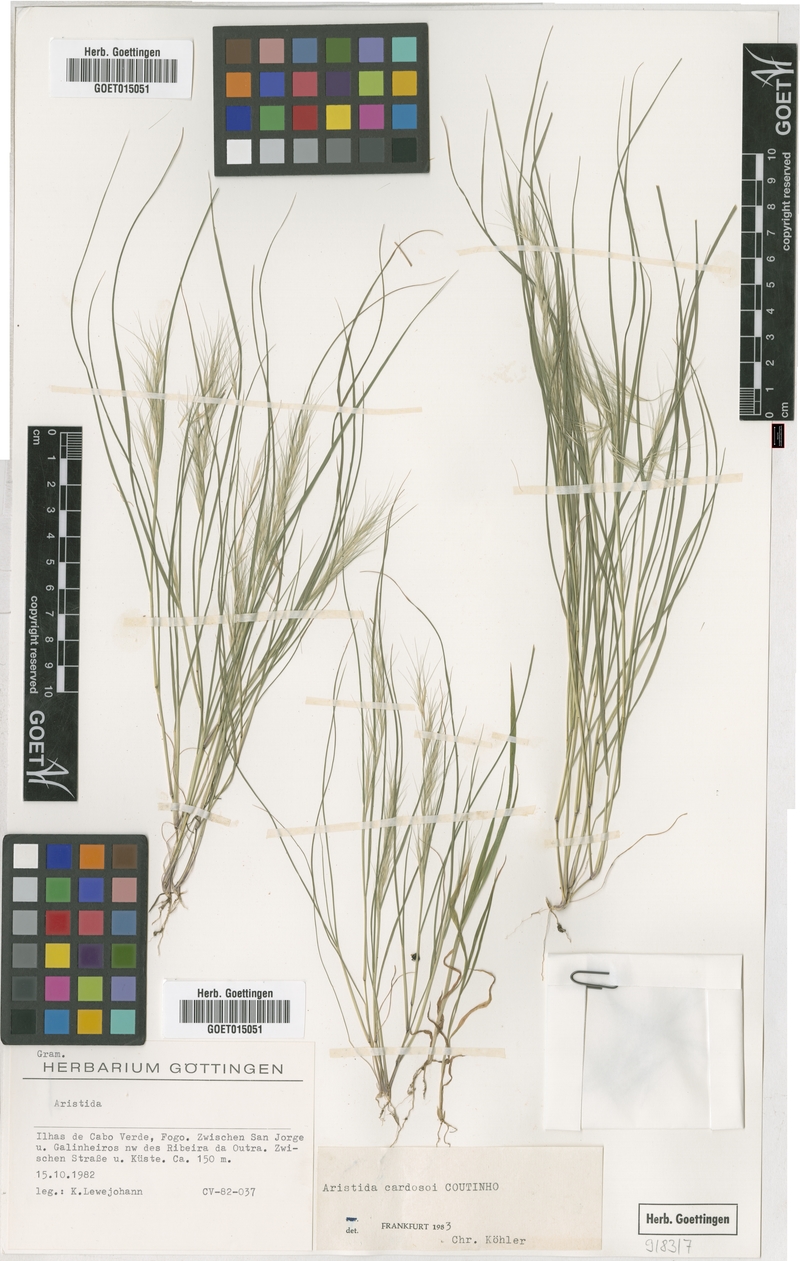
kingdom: Plantae
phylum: Tracheophyta
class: Liliopsida
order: Poales
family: Poaceae
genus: Aristida
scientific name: Aristida adscensionis
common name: Sixweeks threeawn
